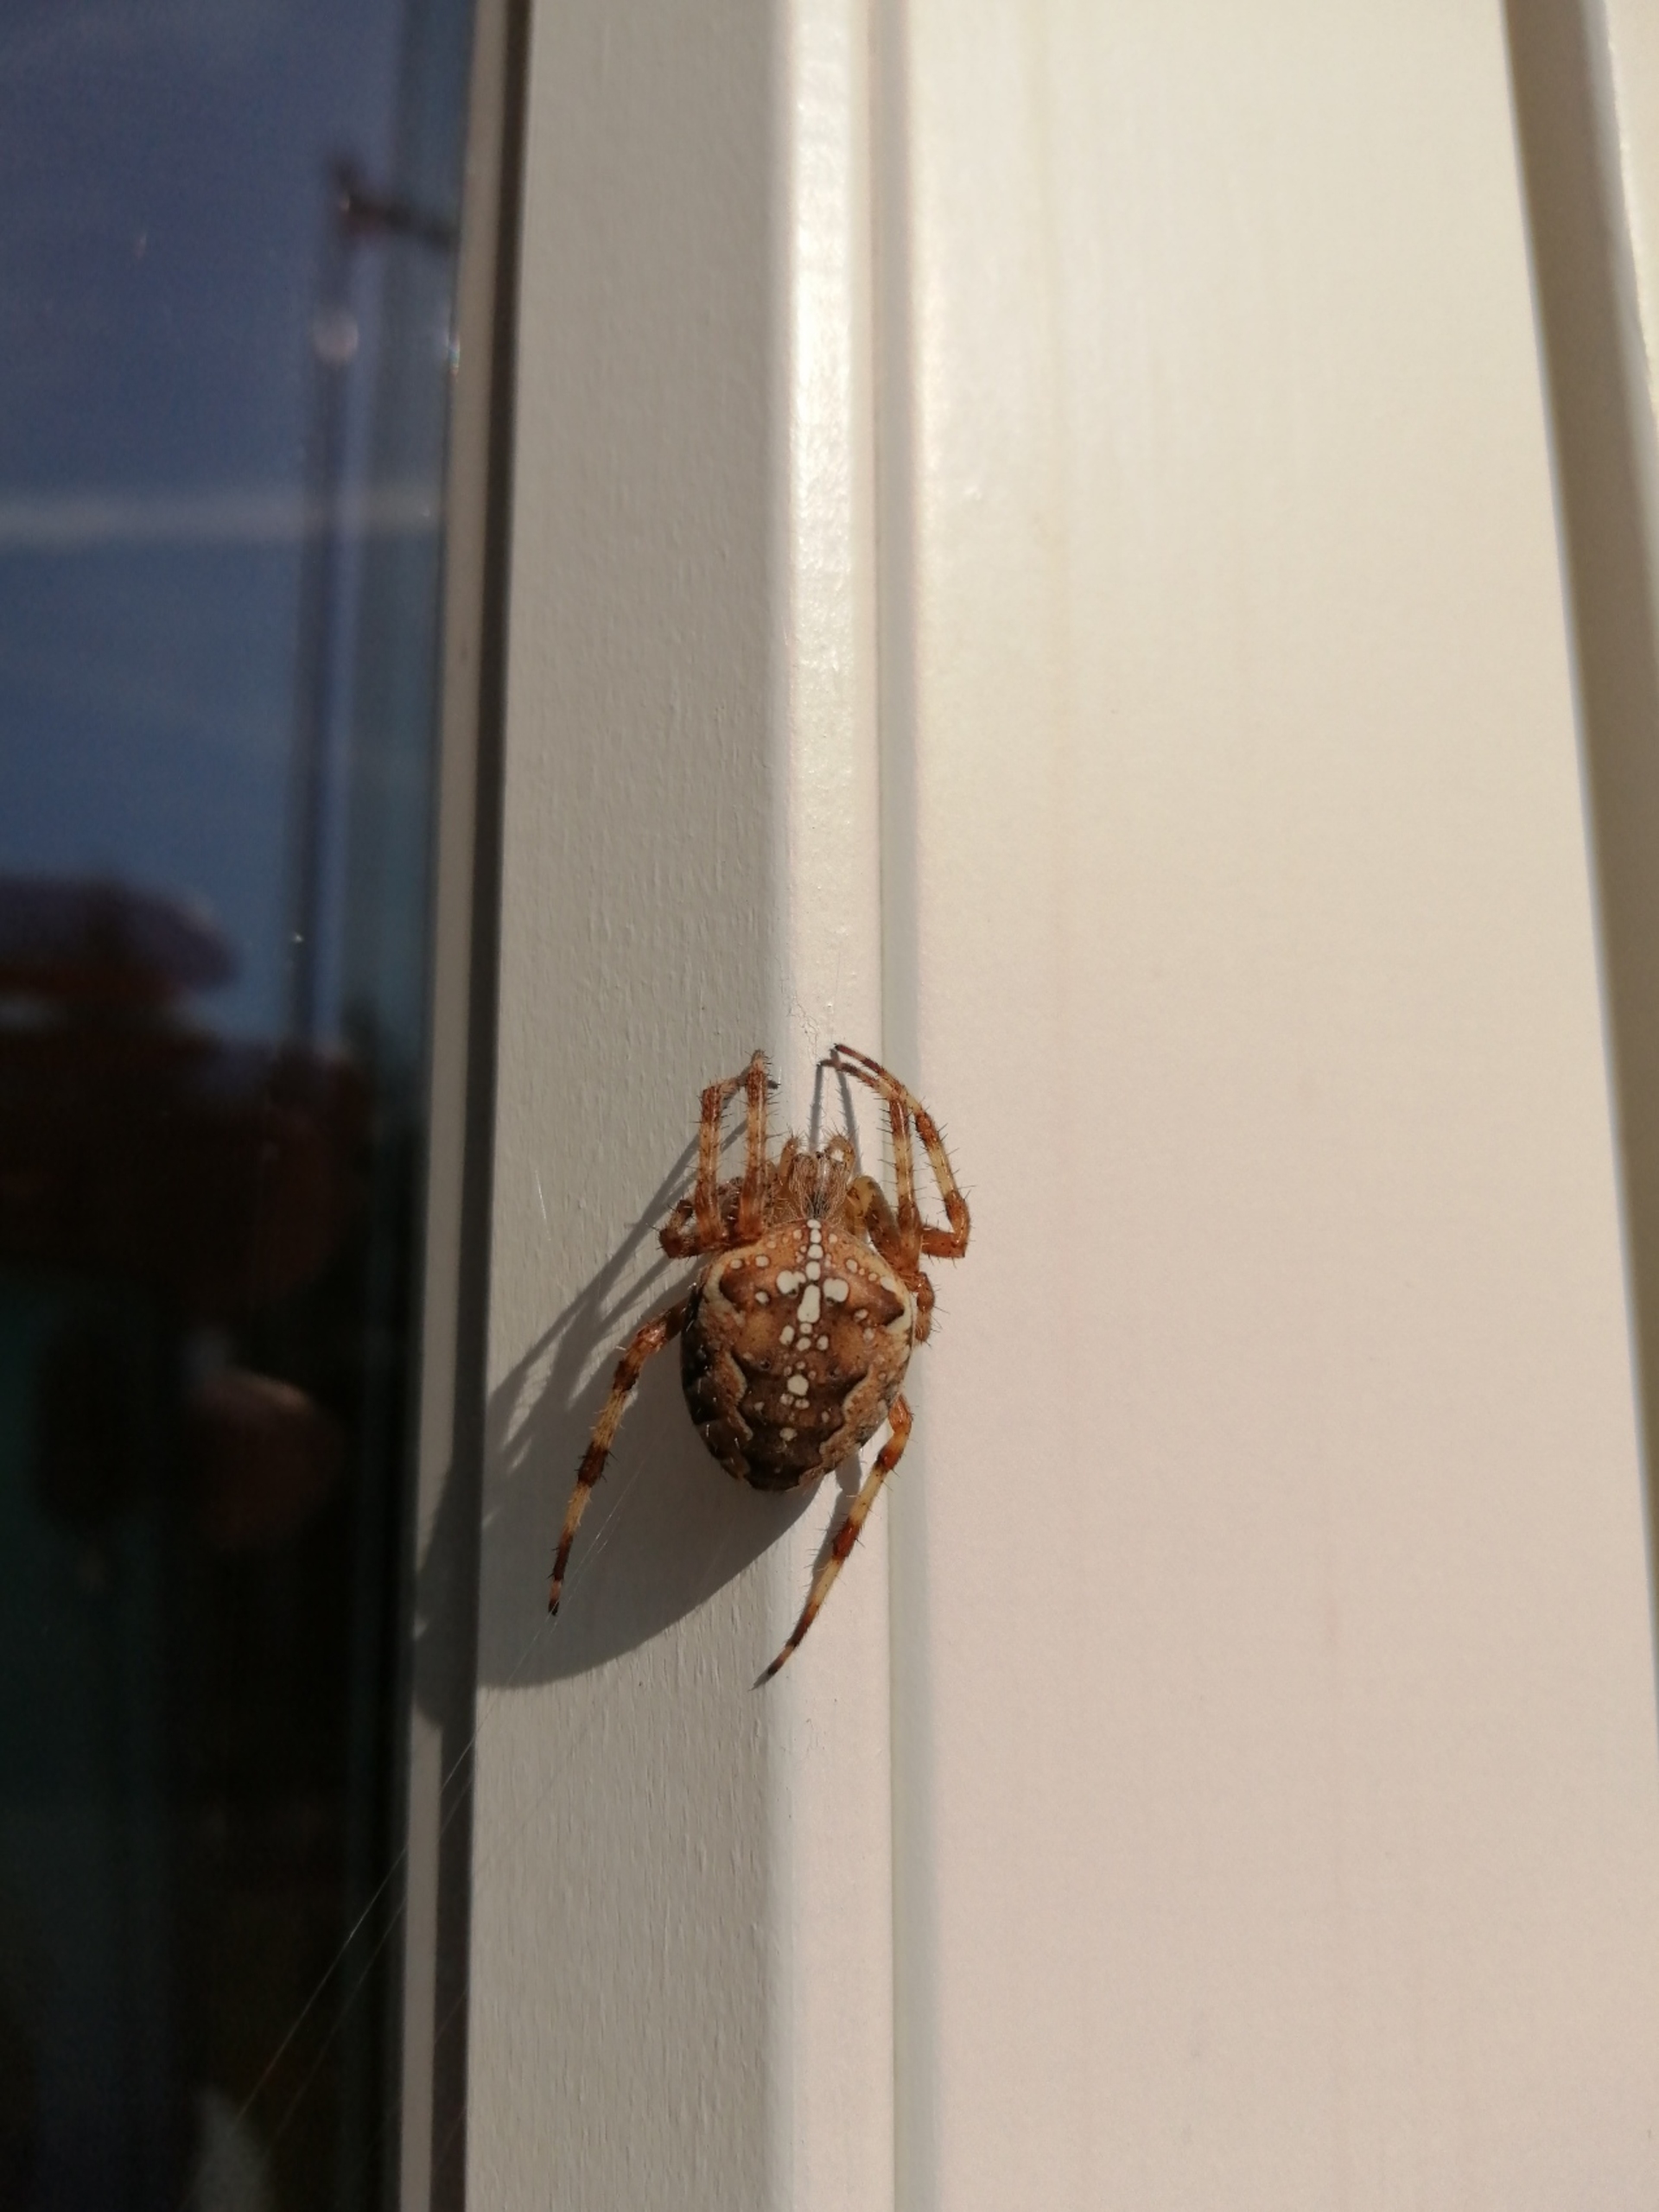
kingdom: Animalia
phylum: Arthropoda
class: Arachnida
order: Araneae
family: Araneidae
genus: Araneus
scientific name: Araneus diadematus
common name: Korsedderkop
